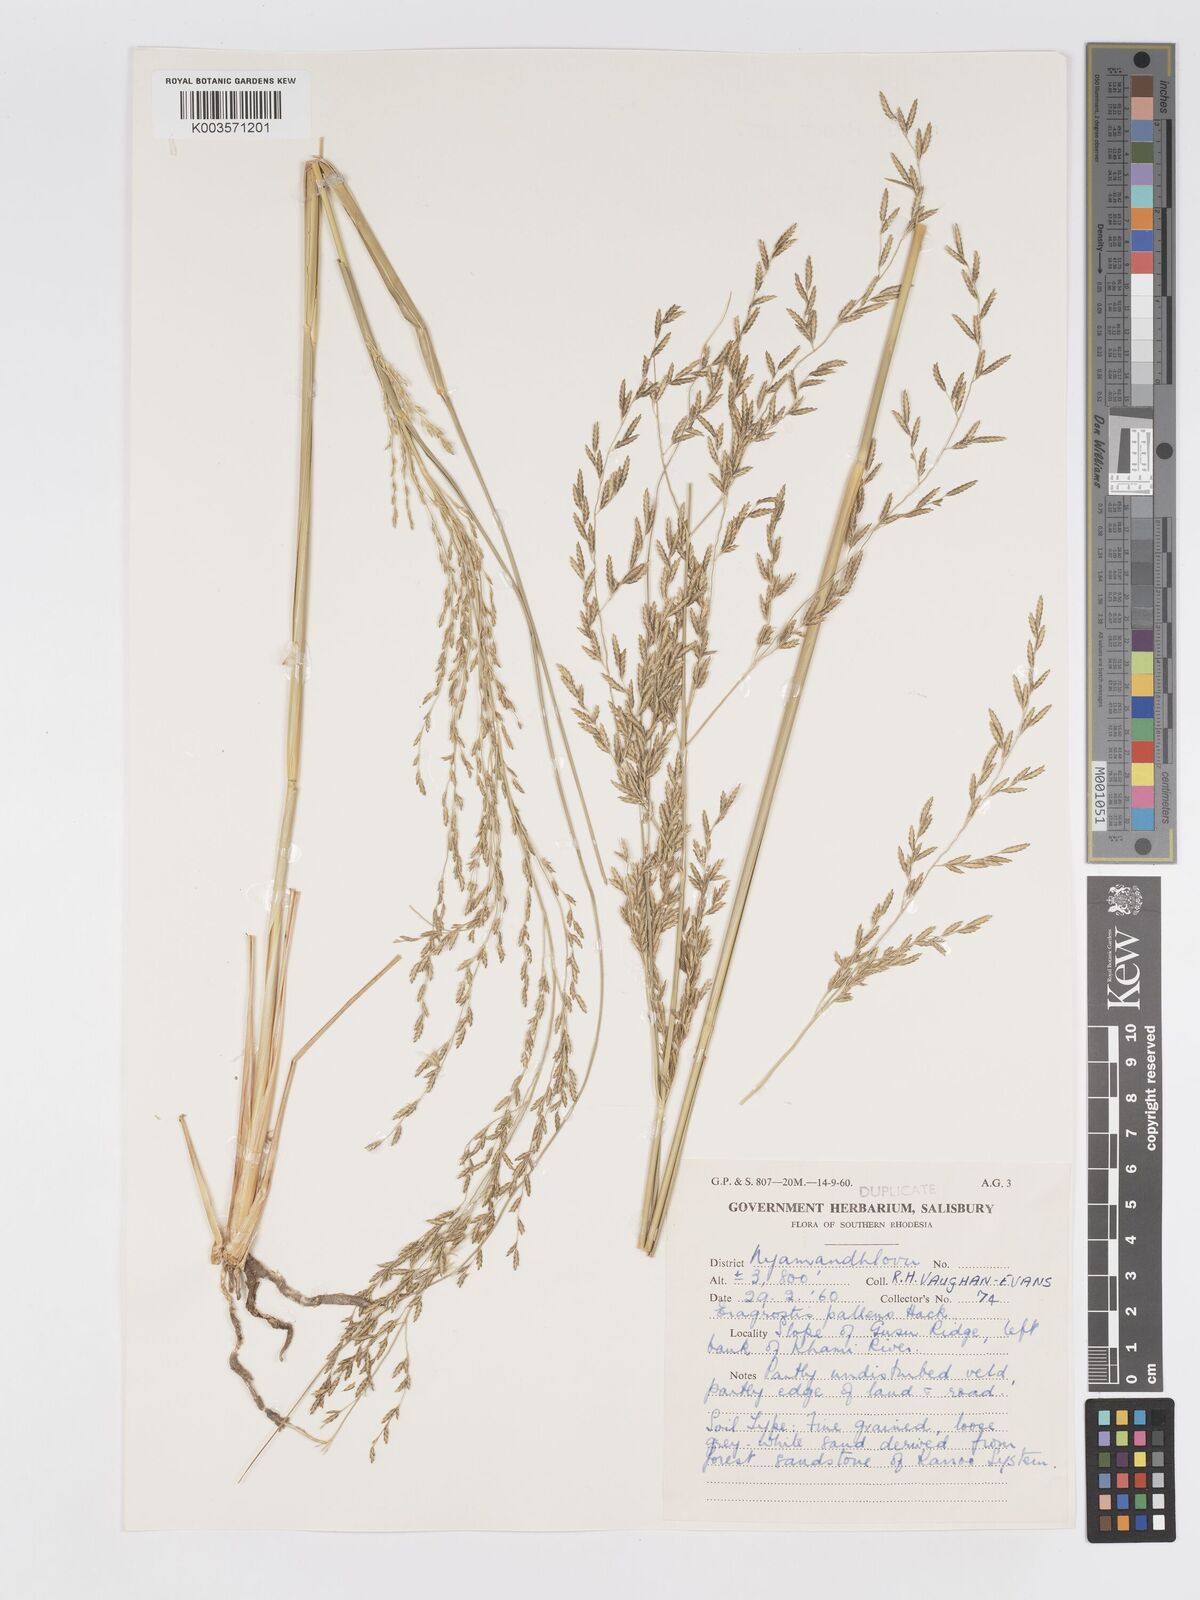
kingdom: Plantae
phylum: Tracheophyta
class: Liliopsida
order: Poales
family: Poaceae
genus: Eragrostis
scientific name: Eragrostis pallens
